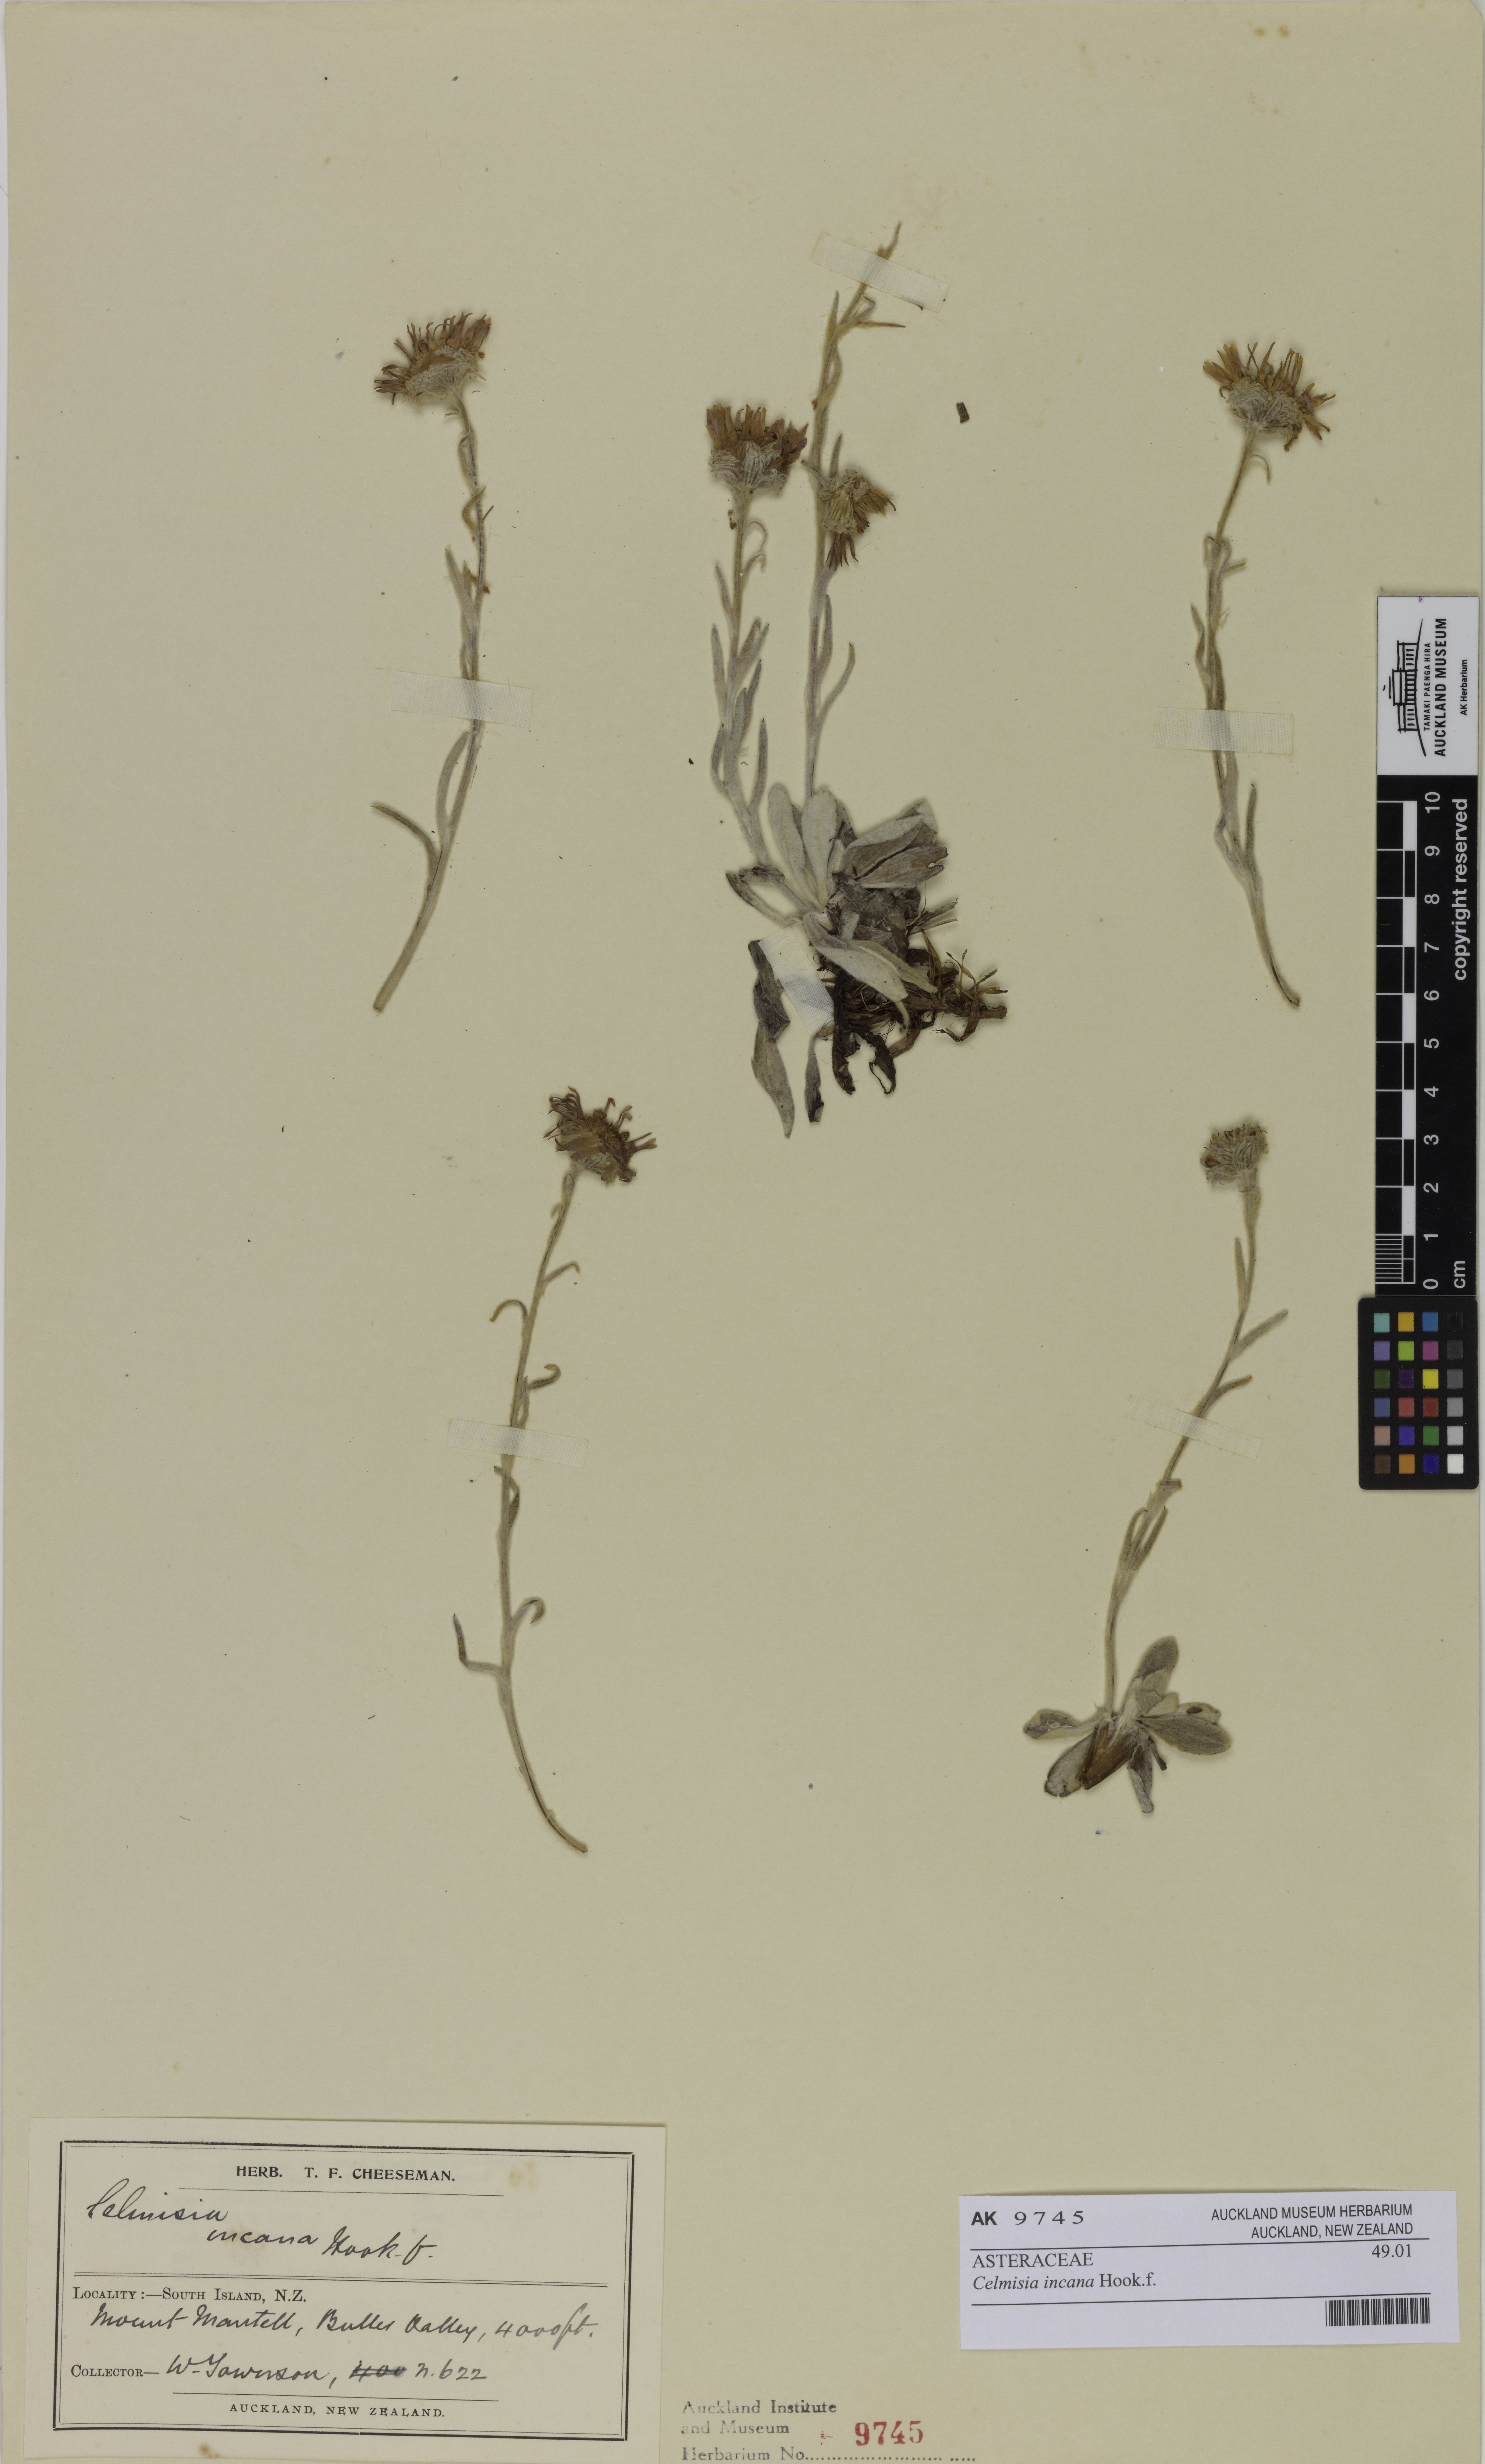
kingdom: Plantae
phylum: Tracheophyta
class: Magnoliopsida
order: Asterales
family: Asteraceae
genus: Celmisia
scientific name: Celmisia incana
